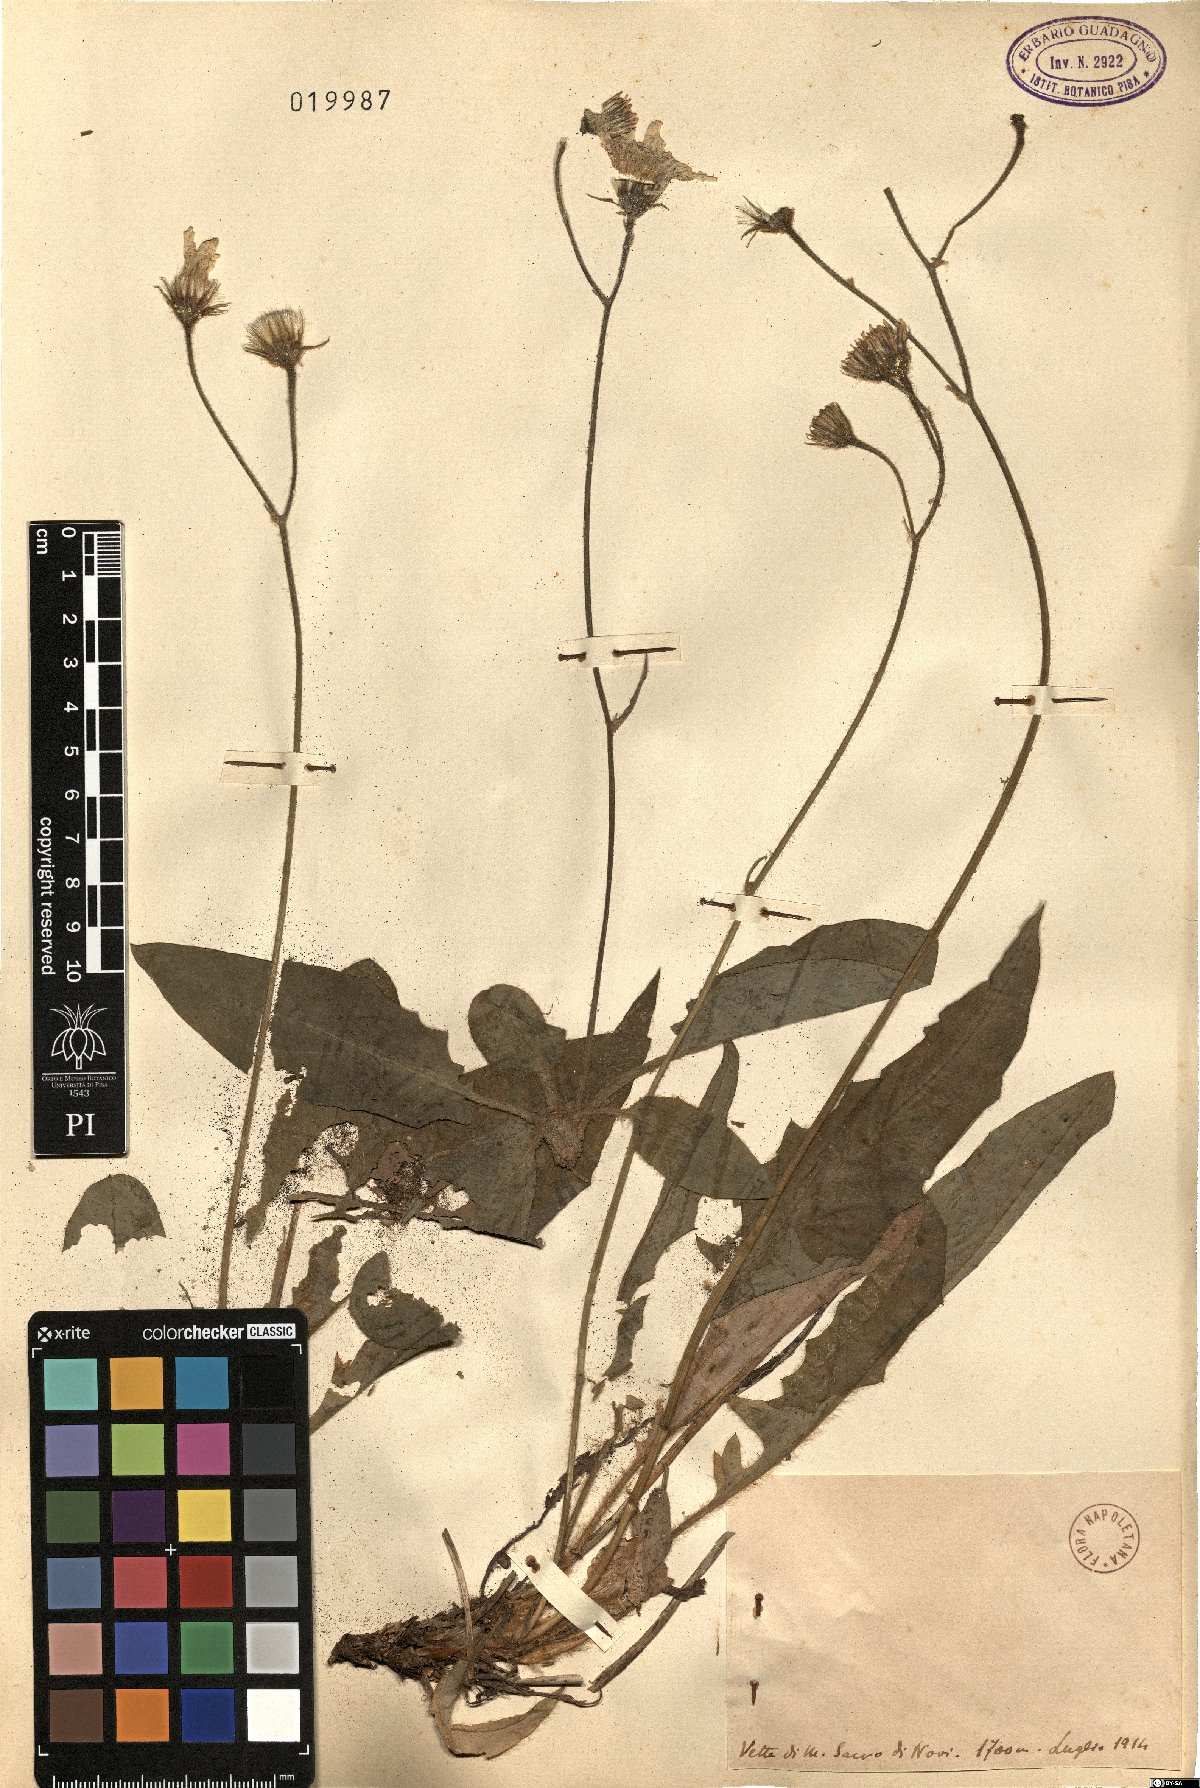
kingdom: Plantae
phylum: Tracheophyta
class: Magnoliopsida
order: Asterales
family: Asteraceae
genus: Hieracium
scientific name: Hieracium
